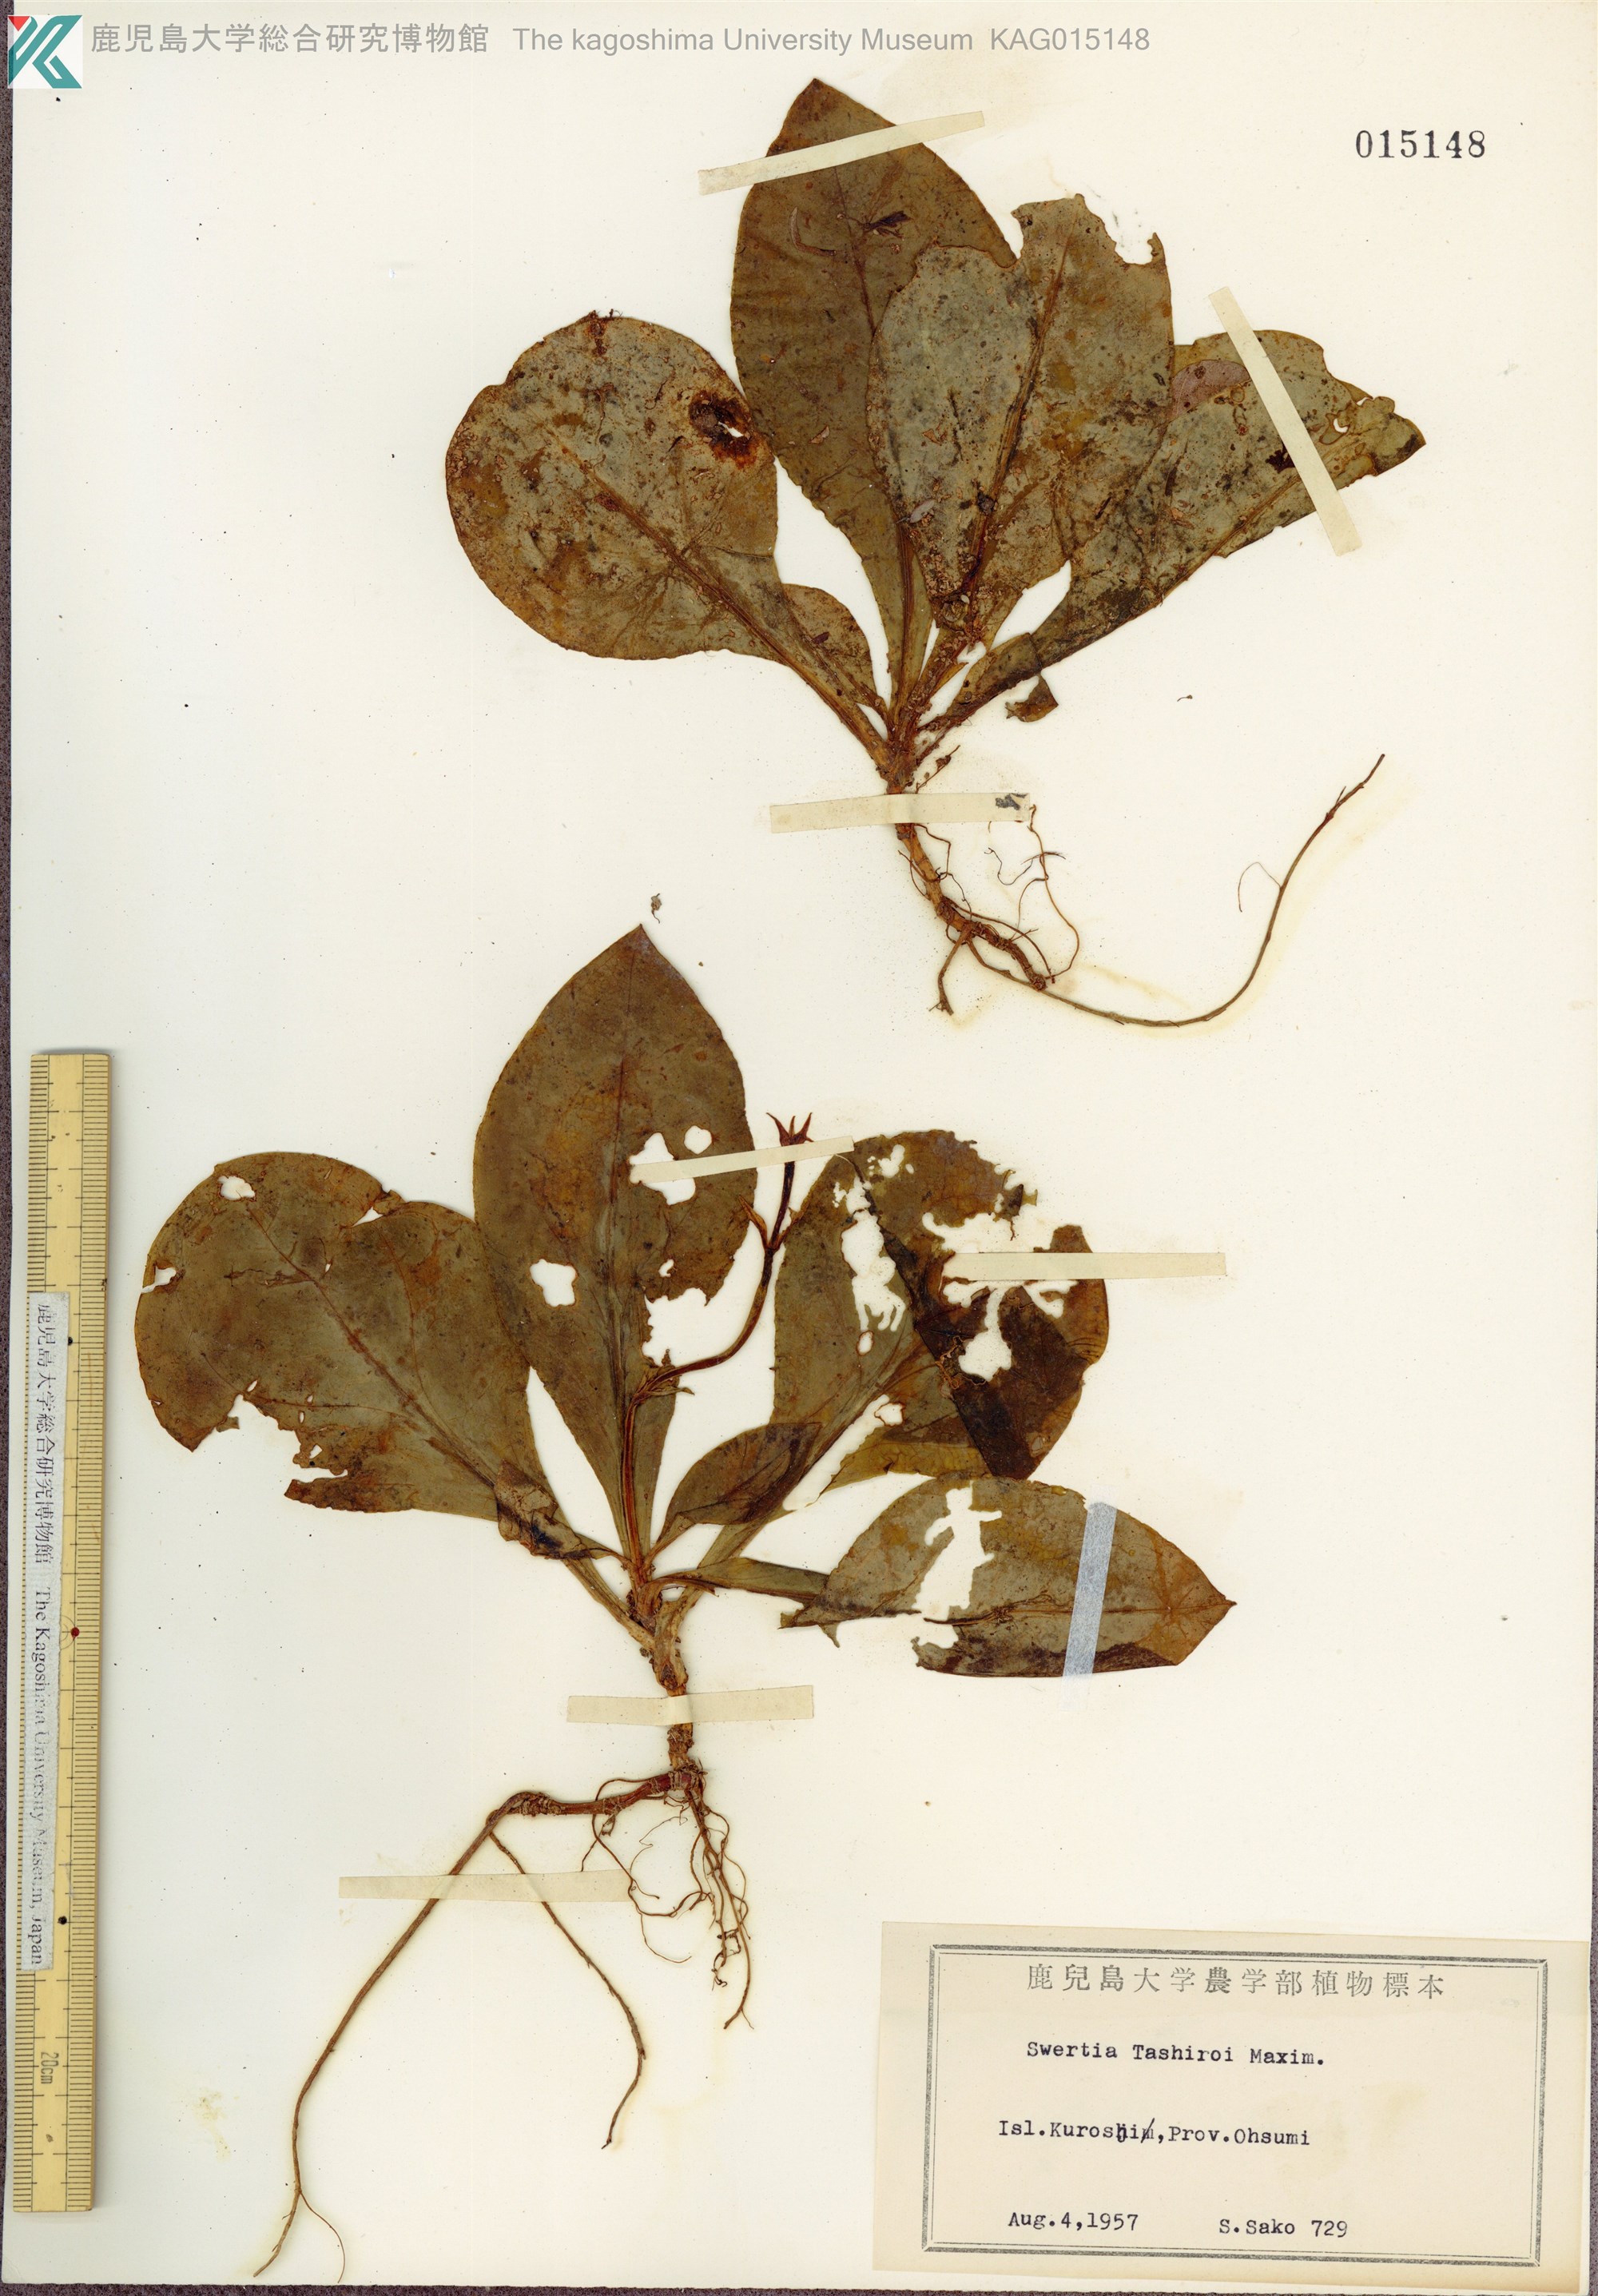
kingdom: Plantae
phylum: Tracheophyta
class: Magnoliopsida
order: Gentianales
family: Gentianaceae
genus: Swertia
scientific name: Swertia tashiroi
